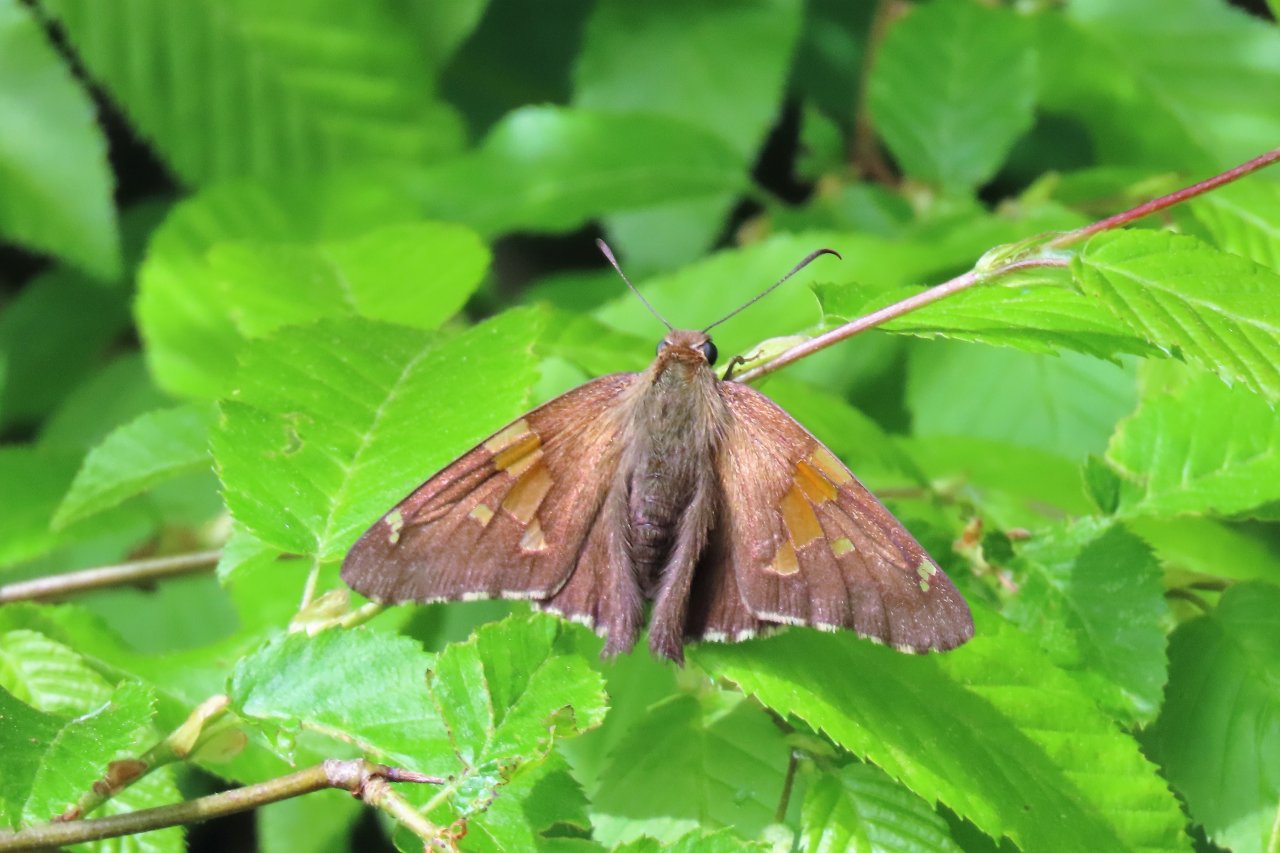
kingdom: Animalia
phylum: Arthropoda
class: Insecta
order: Lepidoptera
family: Hesperiidae
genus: Epargyreus
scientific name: Epargyreus clarus
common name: Silver-spotted Skipper
